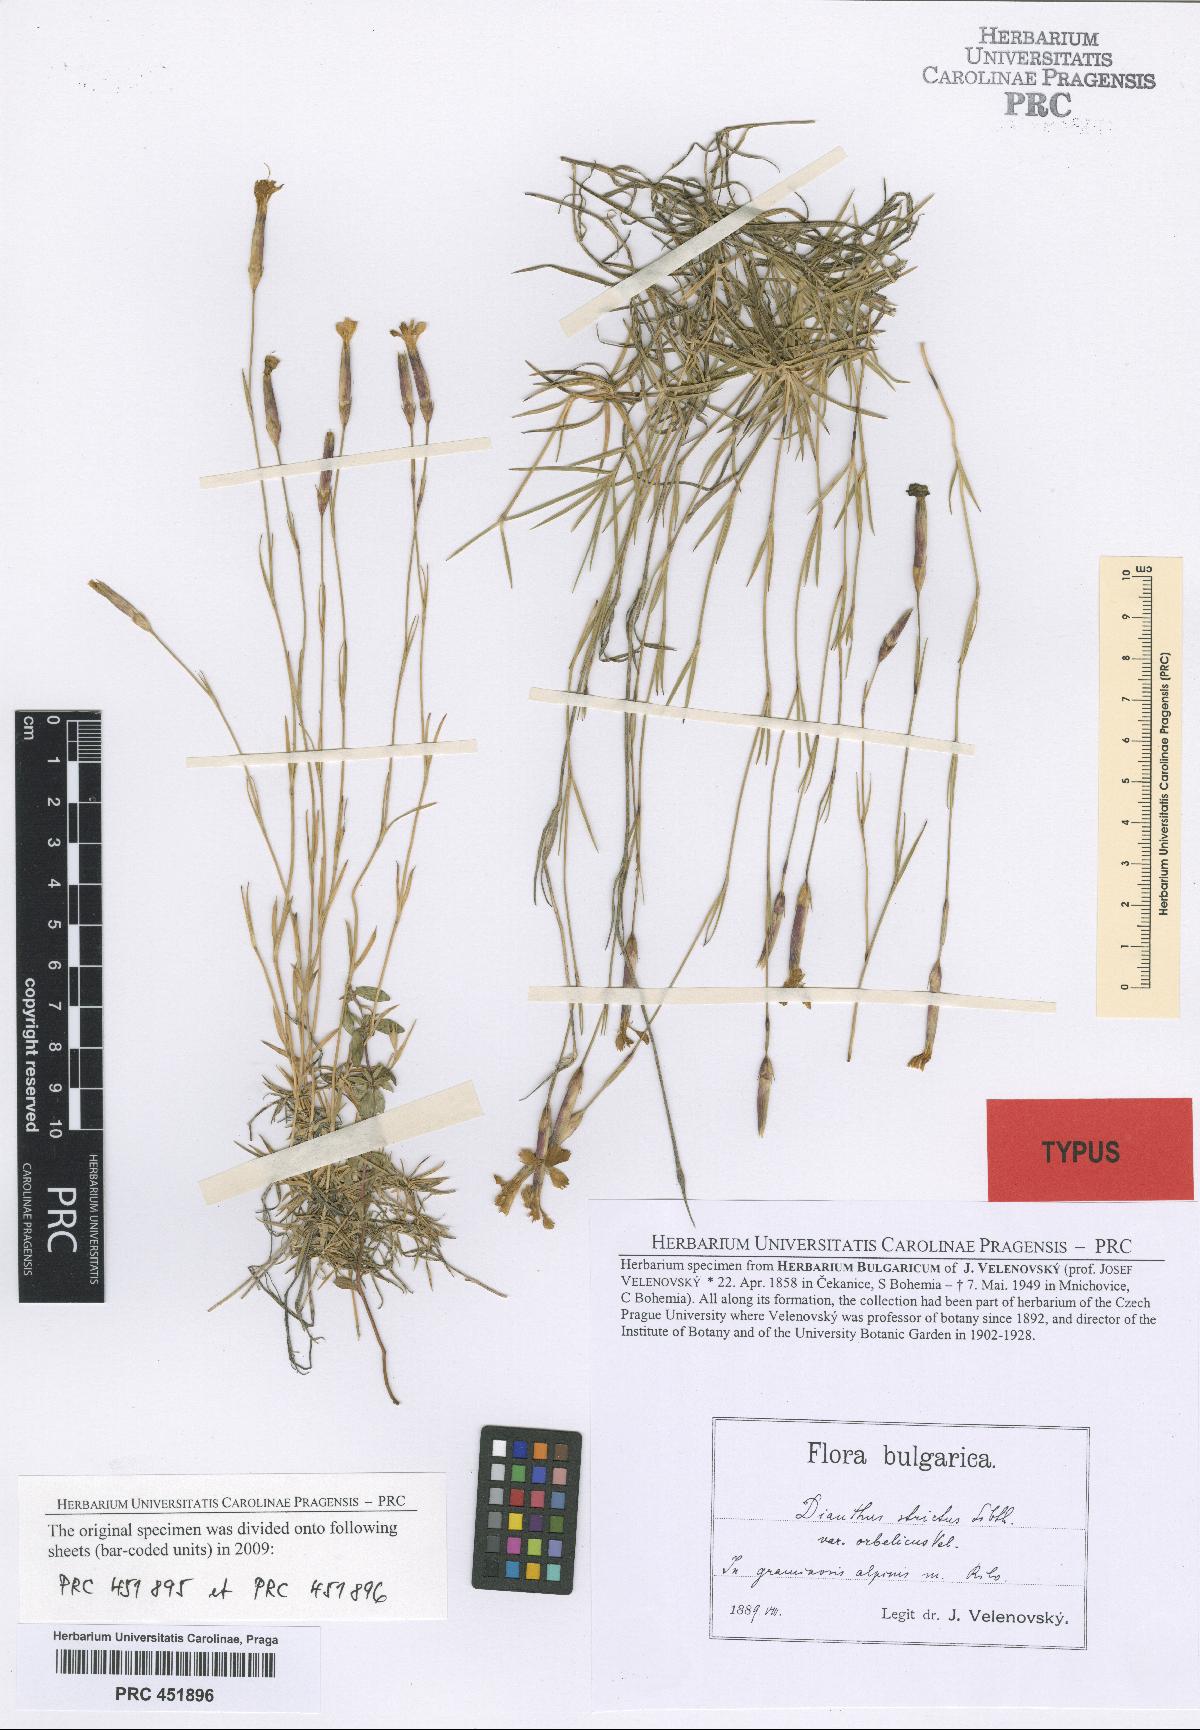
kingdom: Plantae
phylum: Tracheophyta
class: Magnoliopsida
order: Caryophyllales
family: Caryophyllaceae
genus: Dianthus
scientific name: Dianthus petraeus
